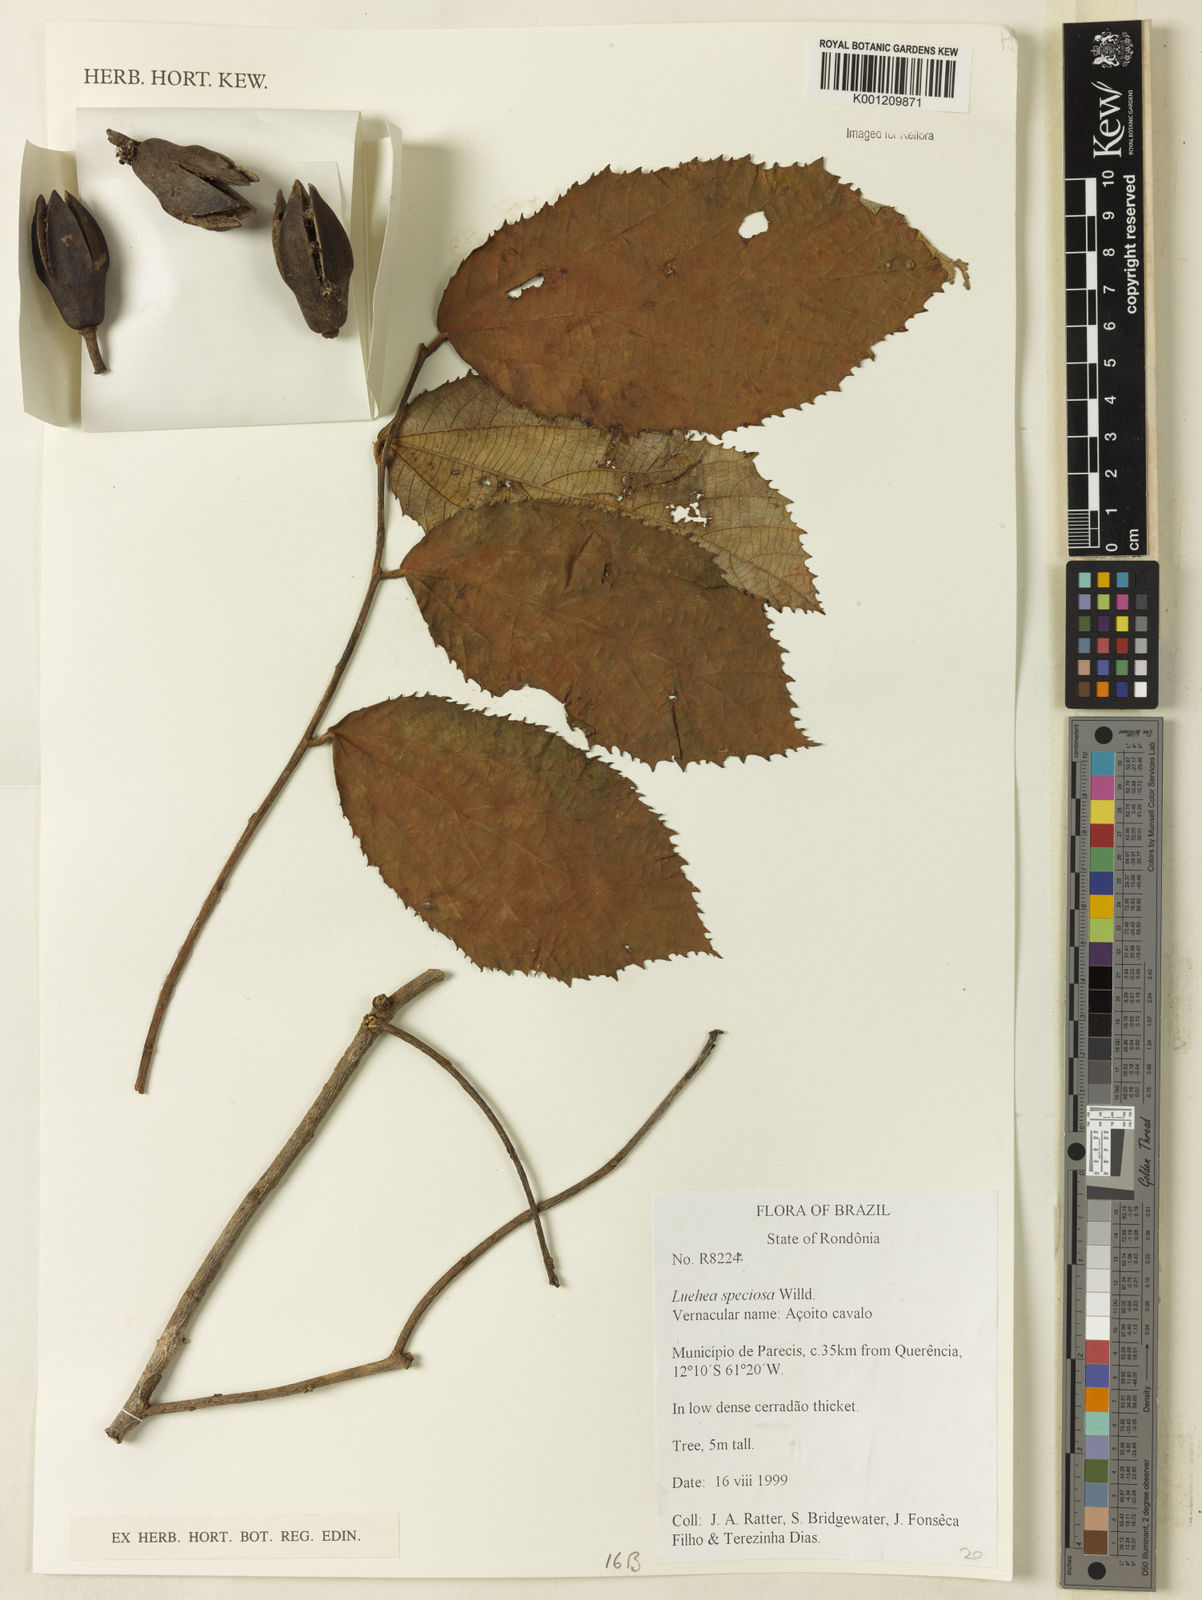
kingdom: Plantae
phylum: Tracheophyta
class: Magnoliopsida
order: Malvales
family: Malvaceae
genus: Luehea
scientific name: Luehea speciosa
